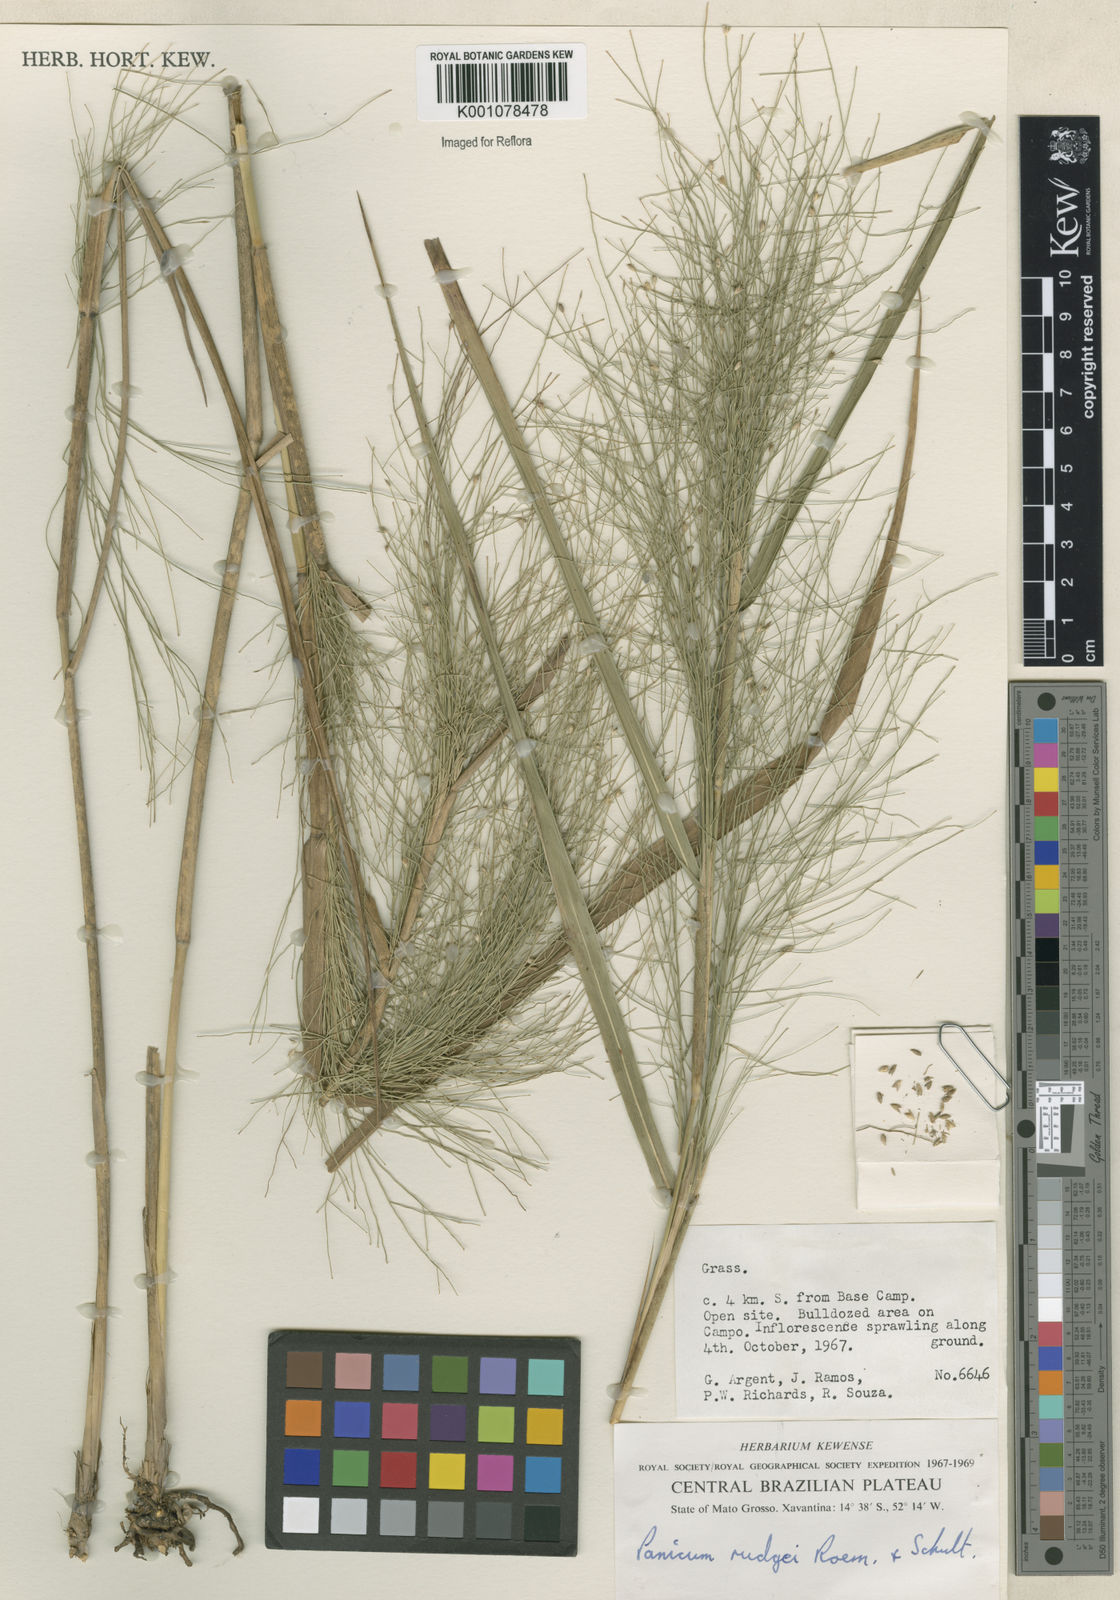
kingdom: Plantae
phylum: Tracheophyta
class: Liliopsida
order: Poales
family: Poaceae
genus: Panicum
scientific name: Panicum rudgei
